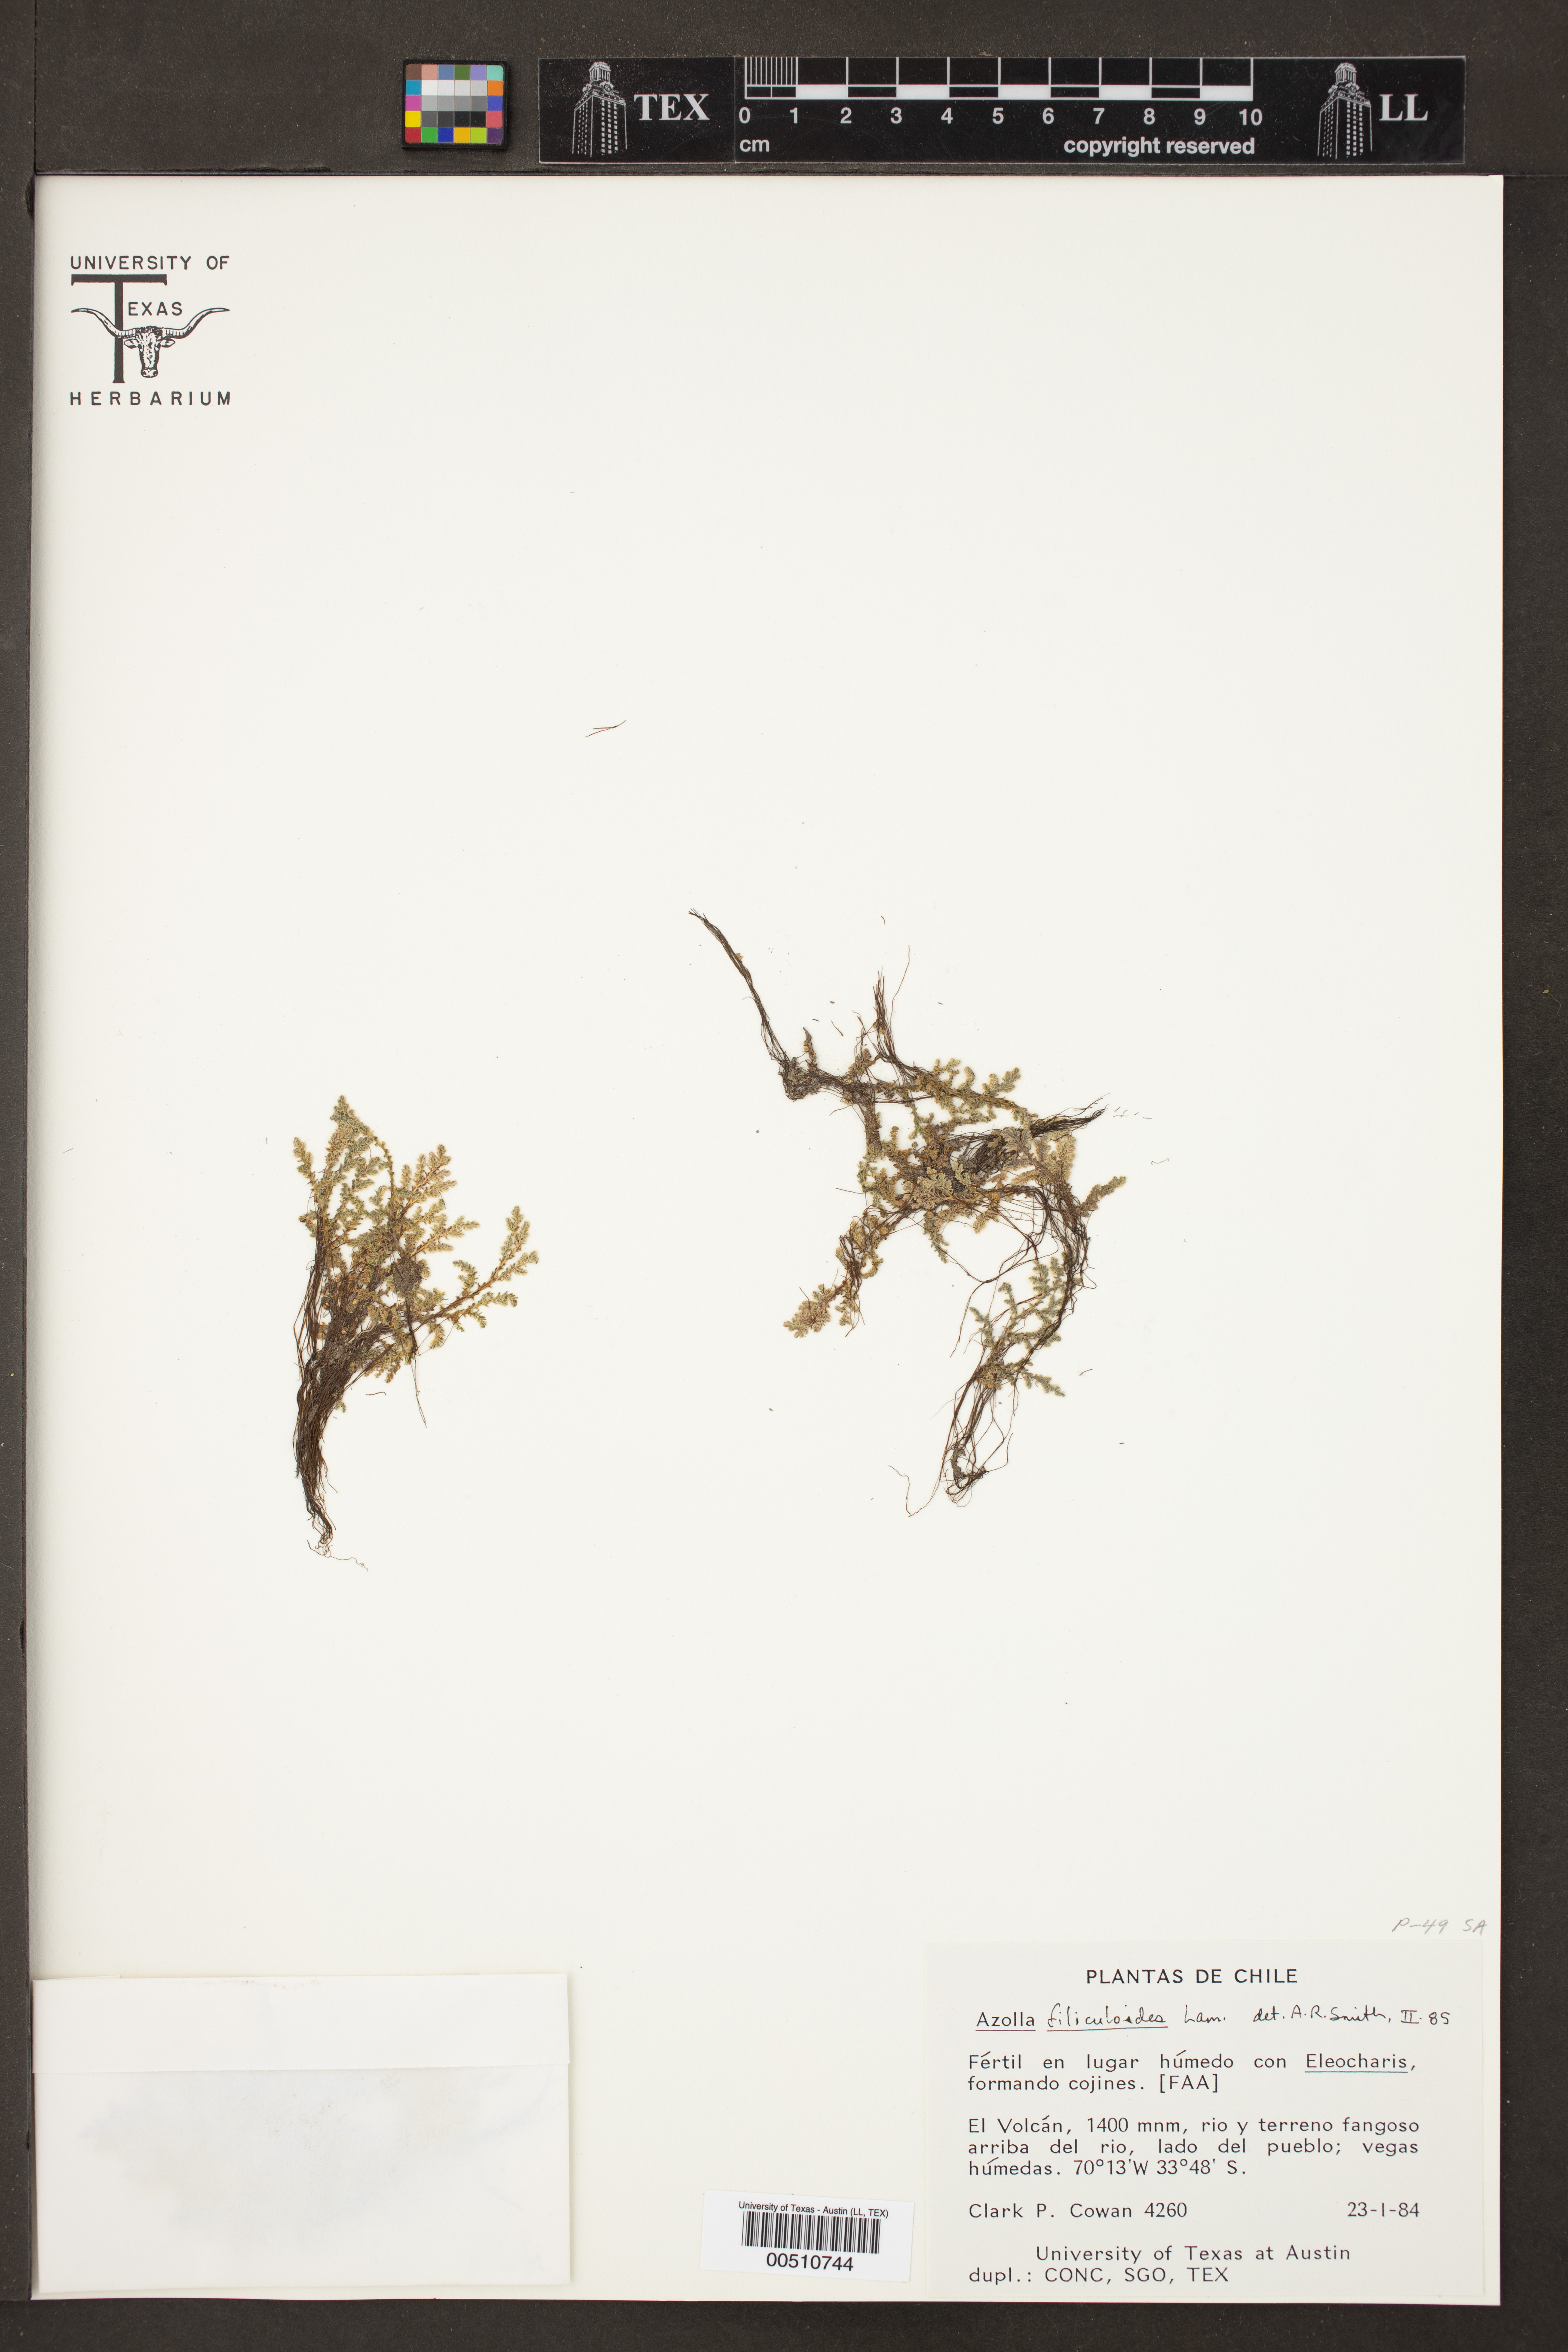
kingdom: Plantae
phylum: Tracheophyta
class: Polypodiopsida
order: Salviniales
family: Salviniaceae
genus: Azolla
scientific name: Azolla filiculoides
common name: Water fern
